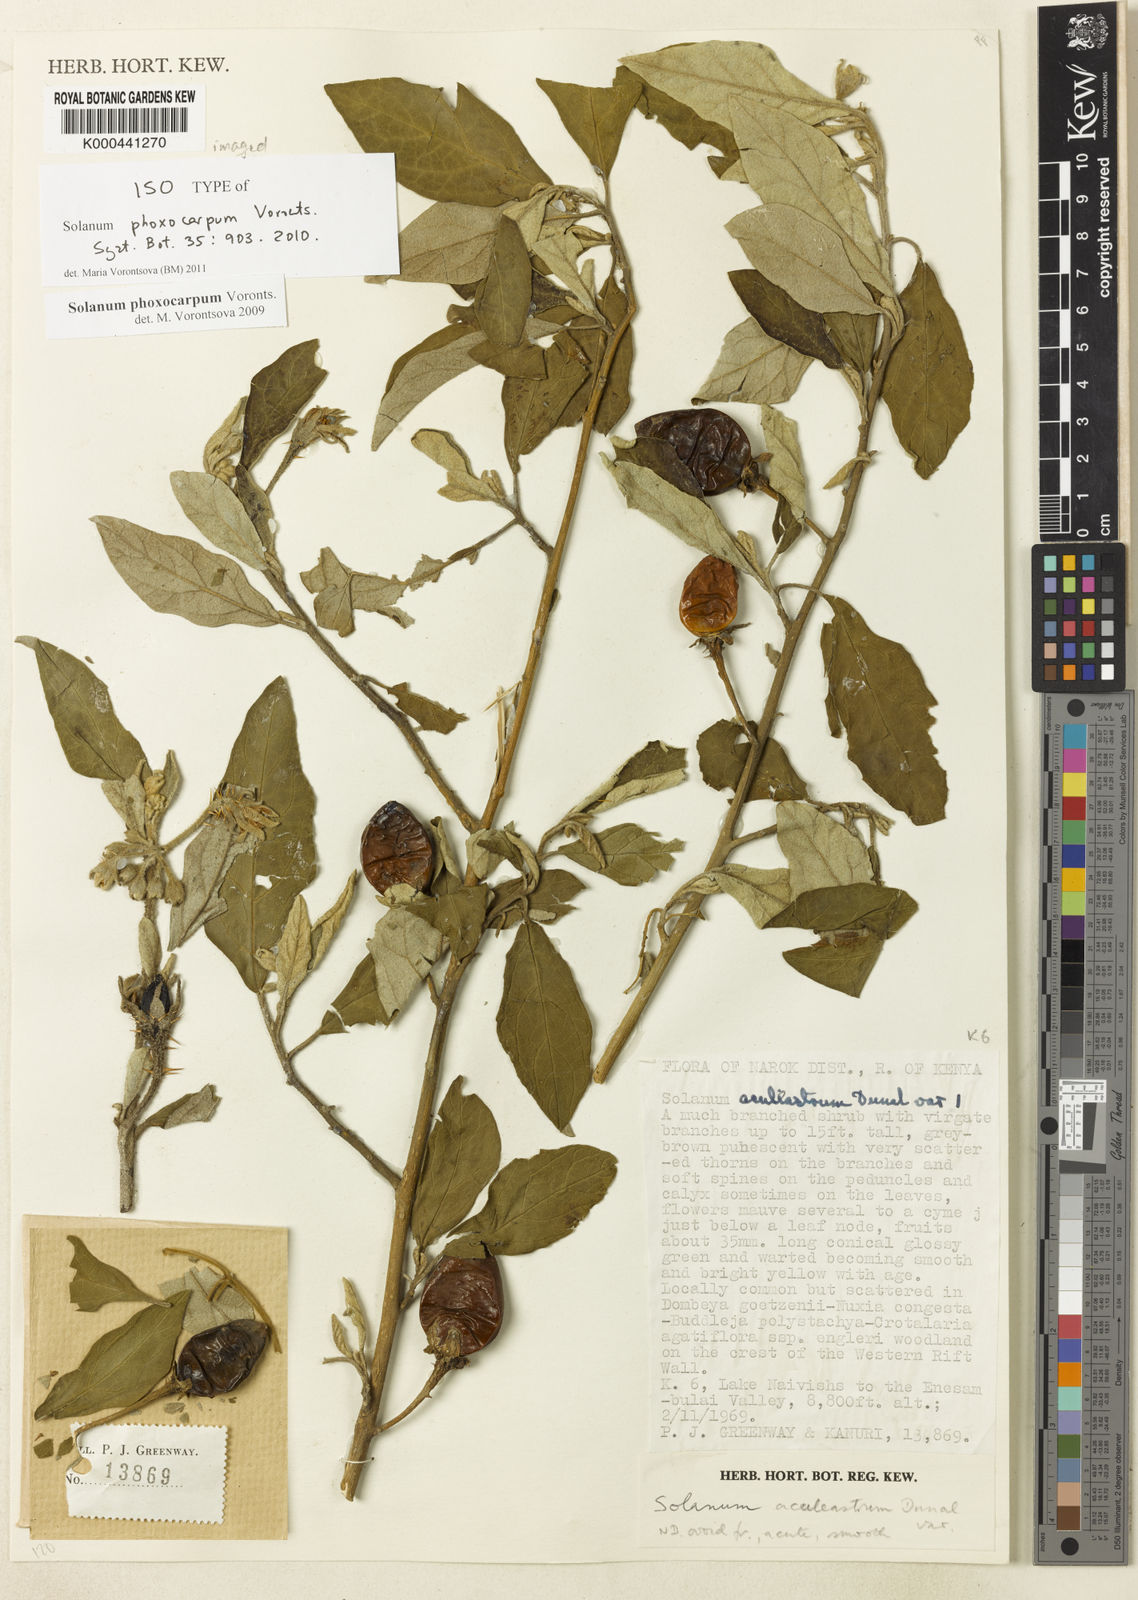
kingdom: Plantae
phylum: Tracheophyta
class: Magnoliopsida
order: Solanales
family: Solanaceae
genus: Solanum
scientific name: Solanum phoxocarpum
